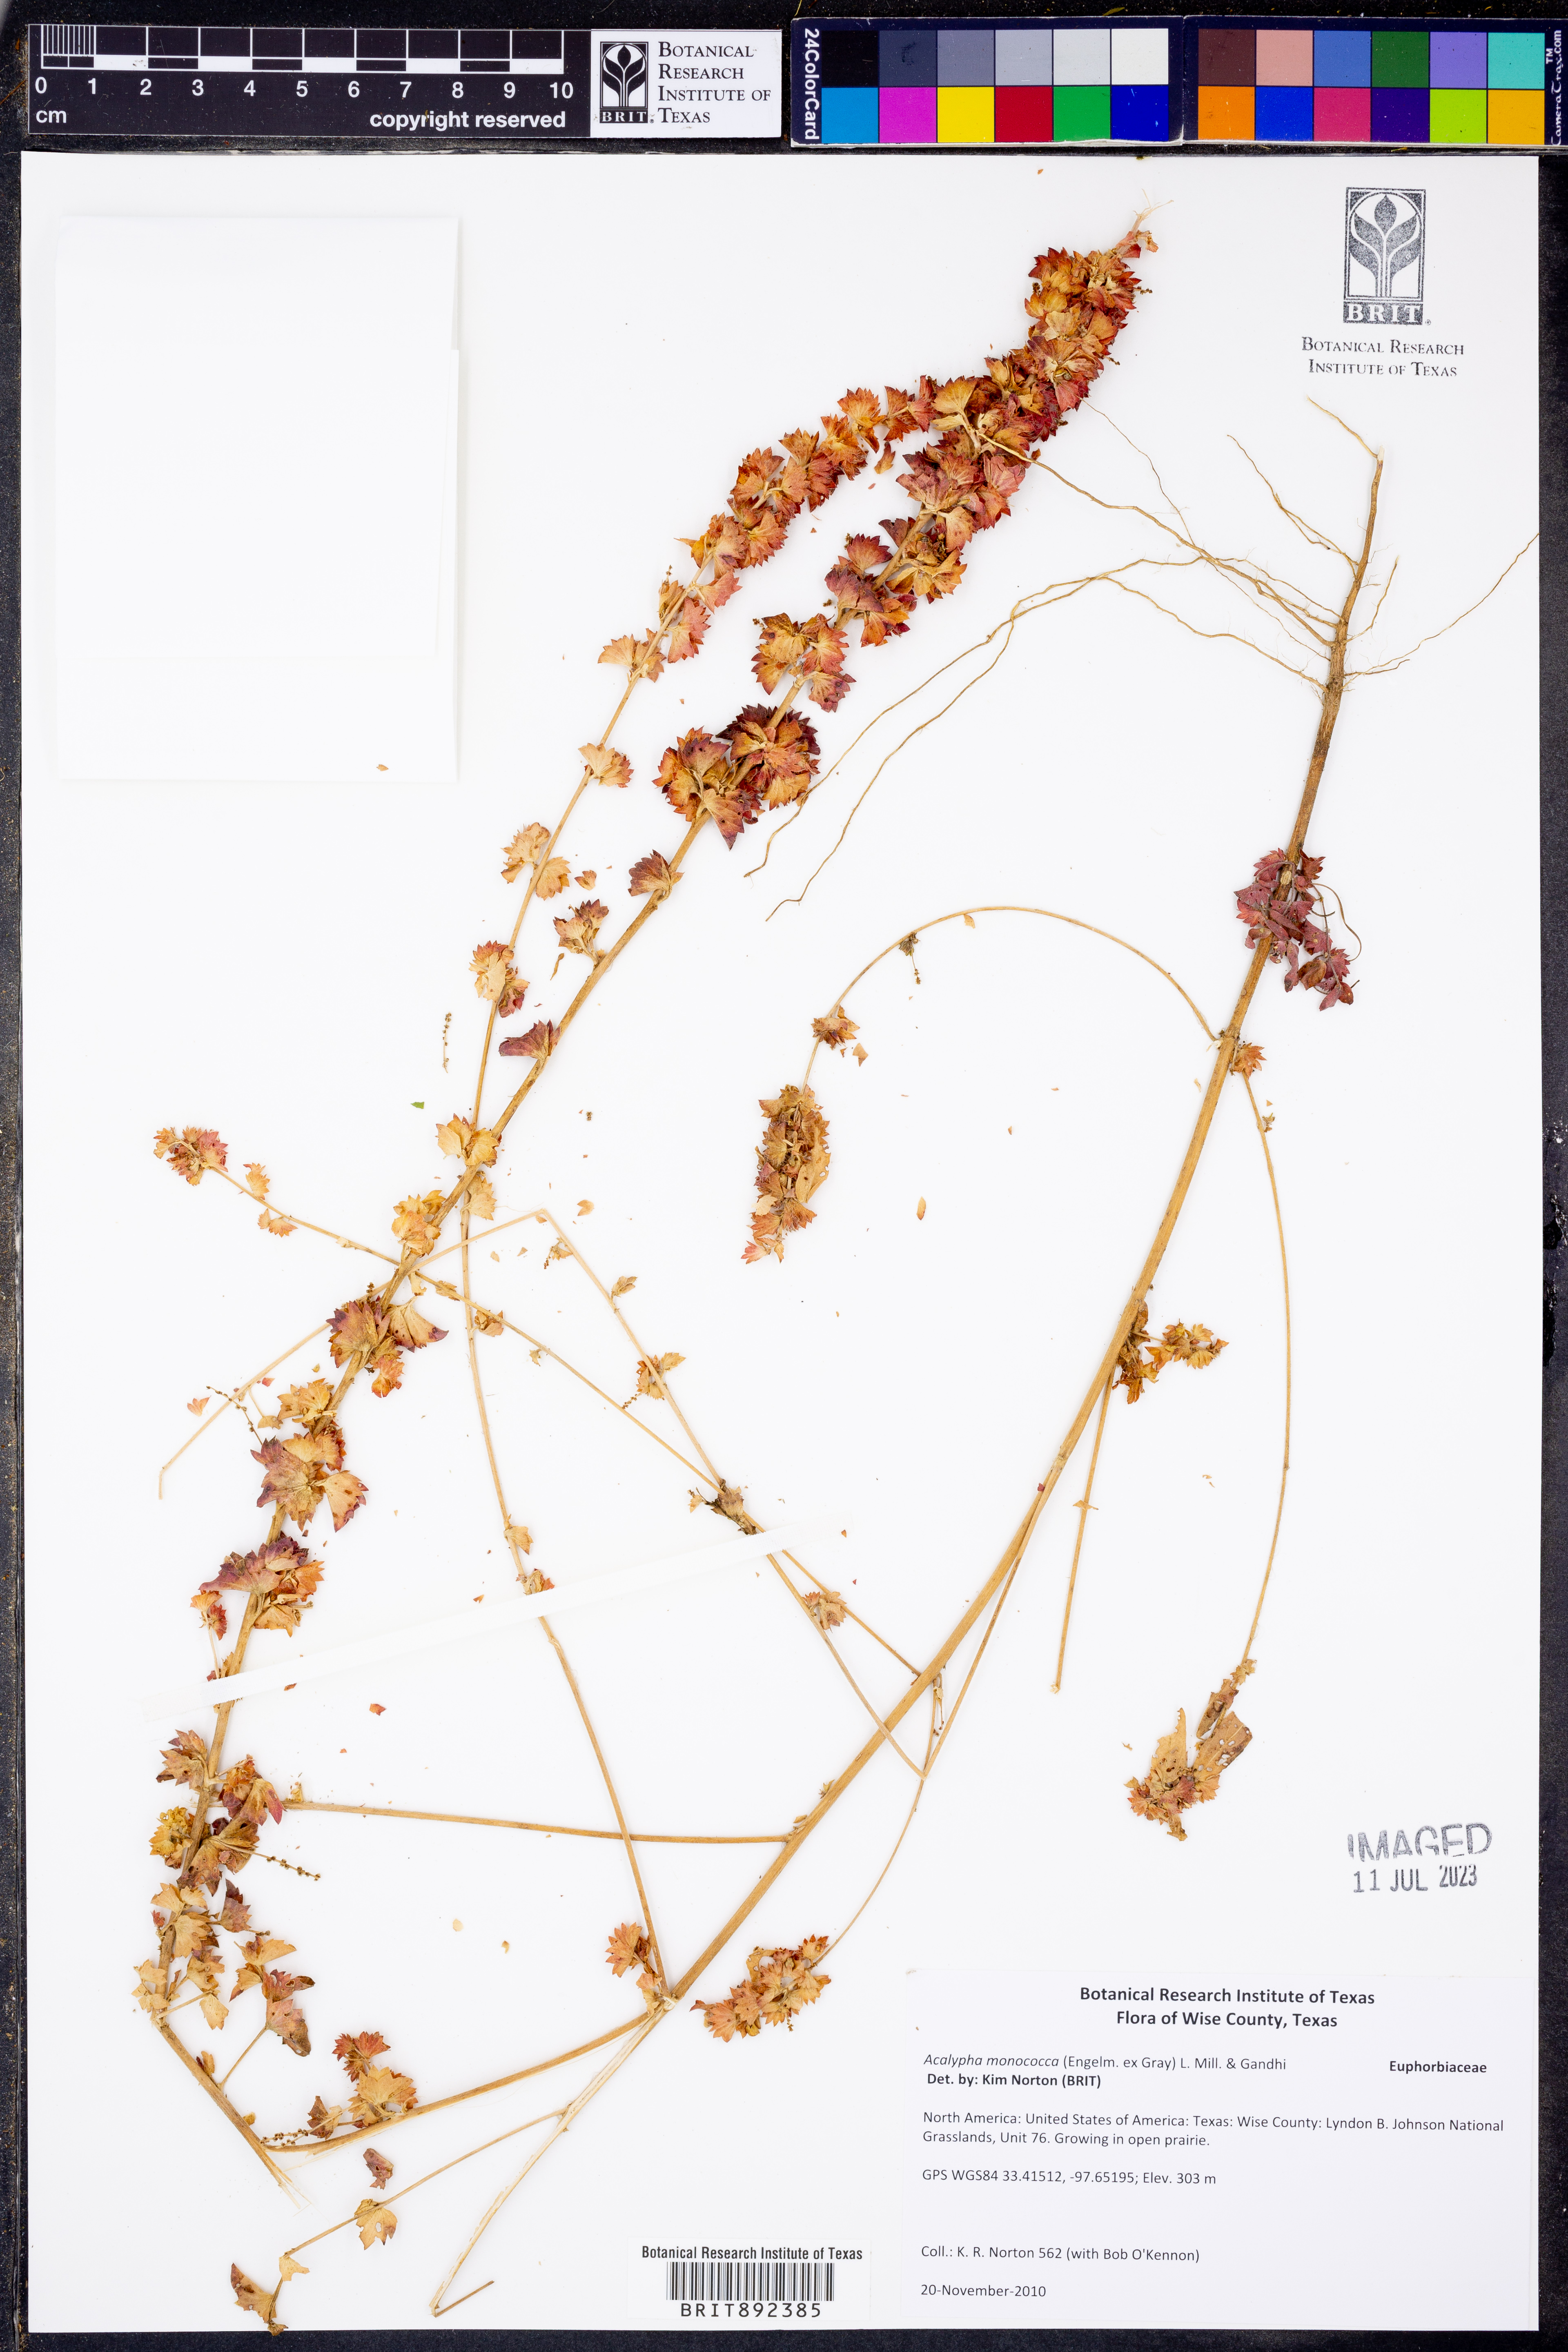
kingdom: Plantae
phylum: Tracheophyta
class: Magnoliopsida
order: Malpighiales
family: Euphorbiaceae
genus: Acalypha
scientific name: Acalypha monococca
